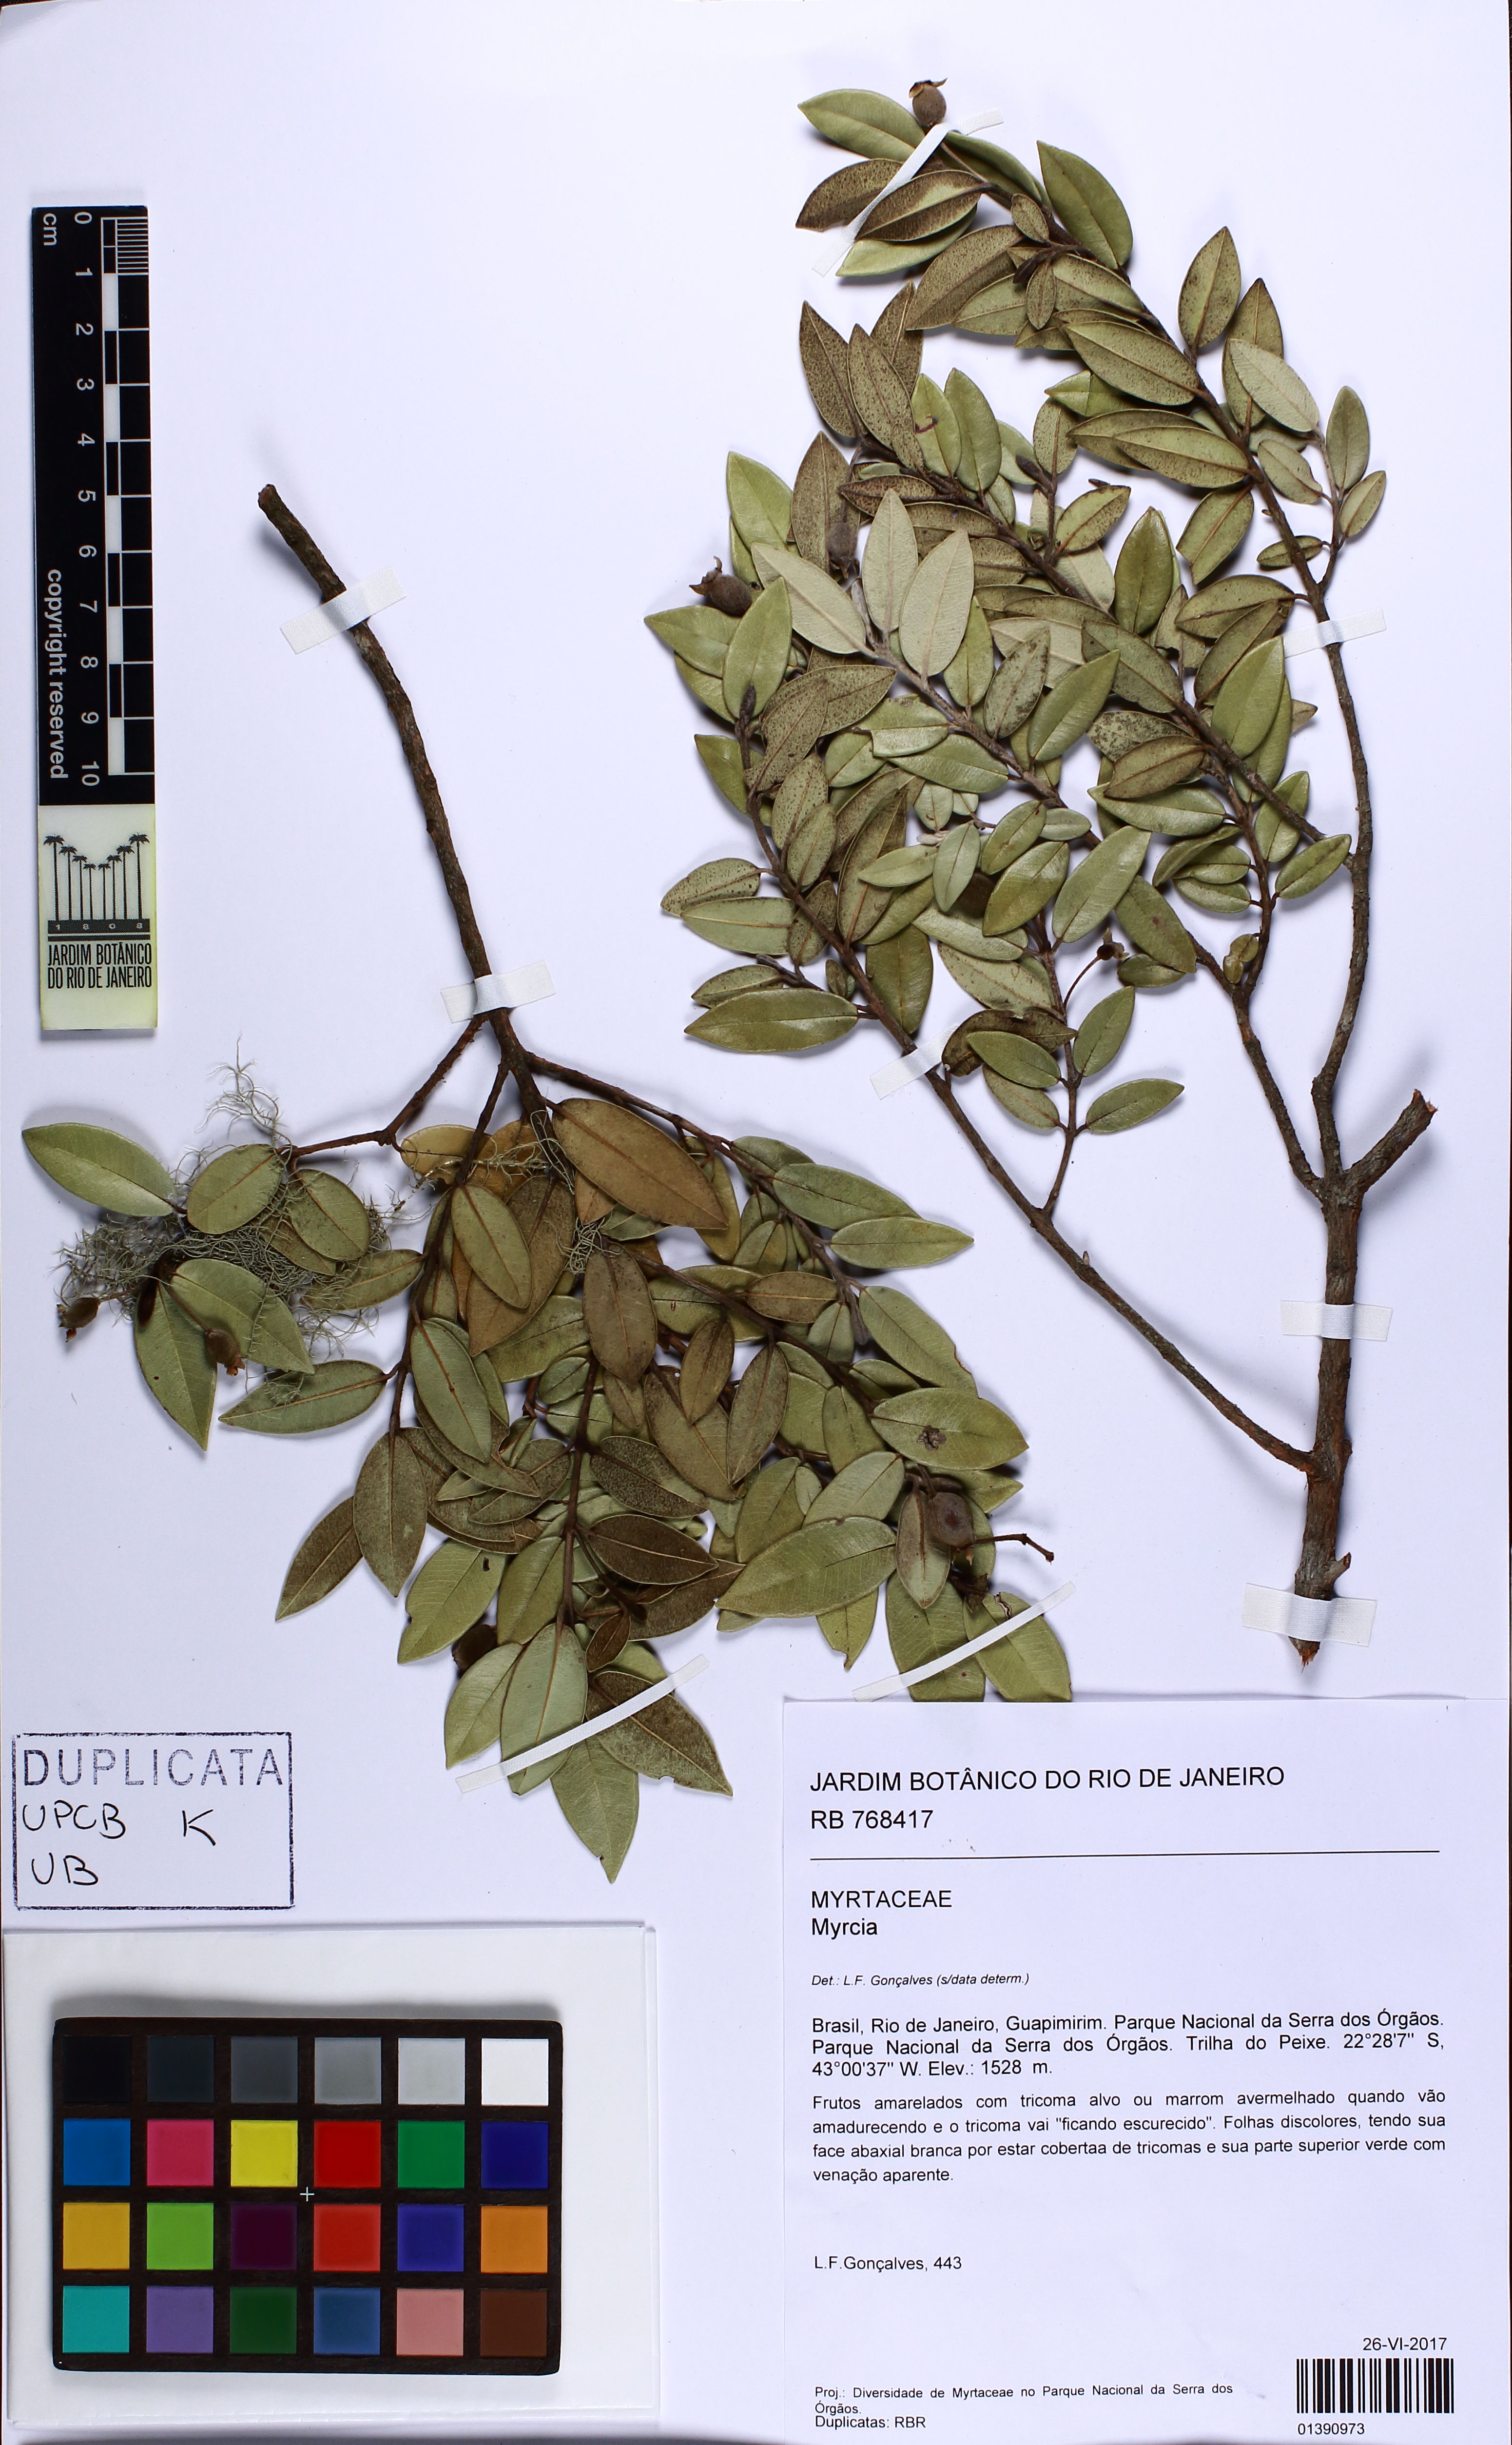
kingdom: Plantae
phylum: Tracheophyta
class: Magnoliopsida
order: Myrtales
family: Myrtaceae
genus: Myrceugenia
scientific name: Myrceugenia
